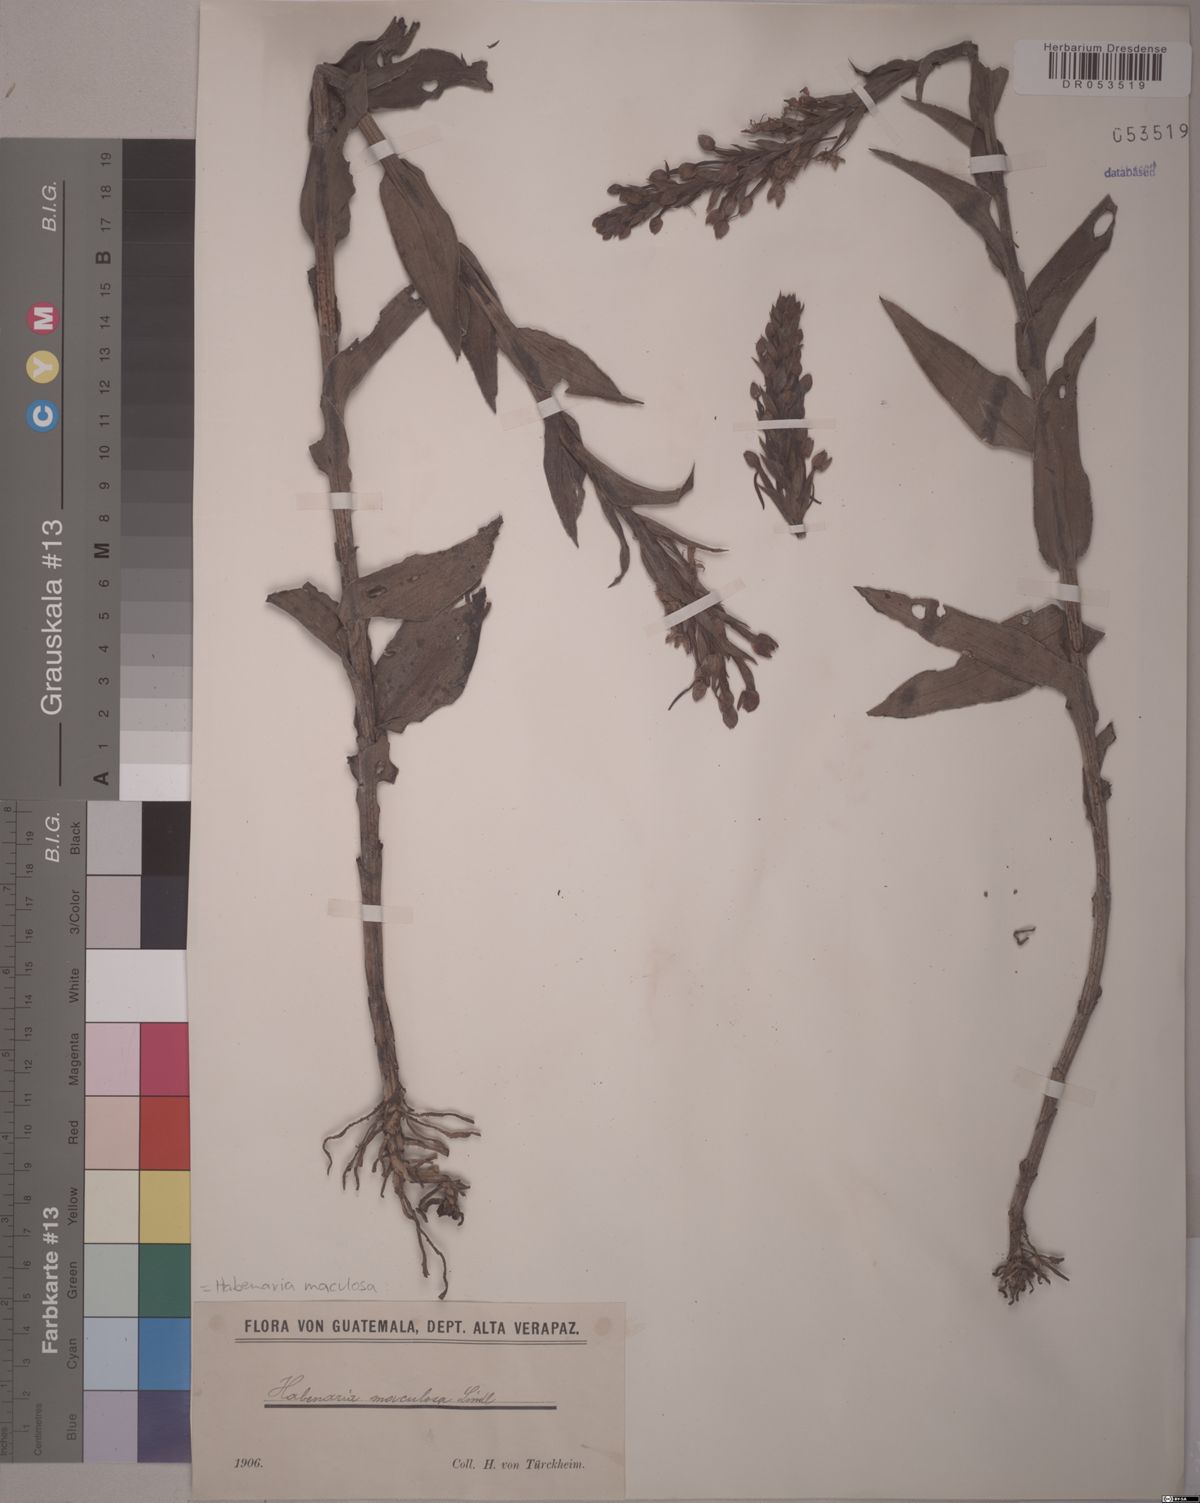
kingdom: Plantae
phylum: Tracheophyta
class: Liliopsida
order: Asparagales
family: Orchidaceae
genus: Habenaria
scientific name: Habenaria maculosa
